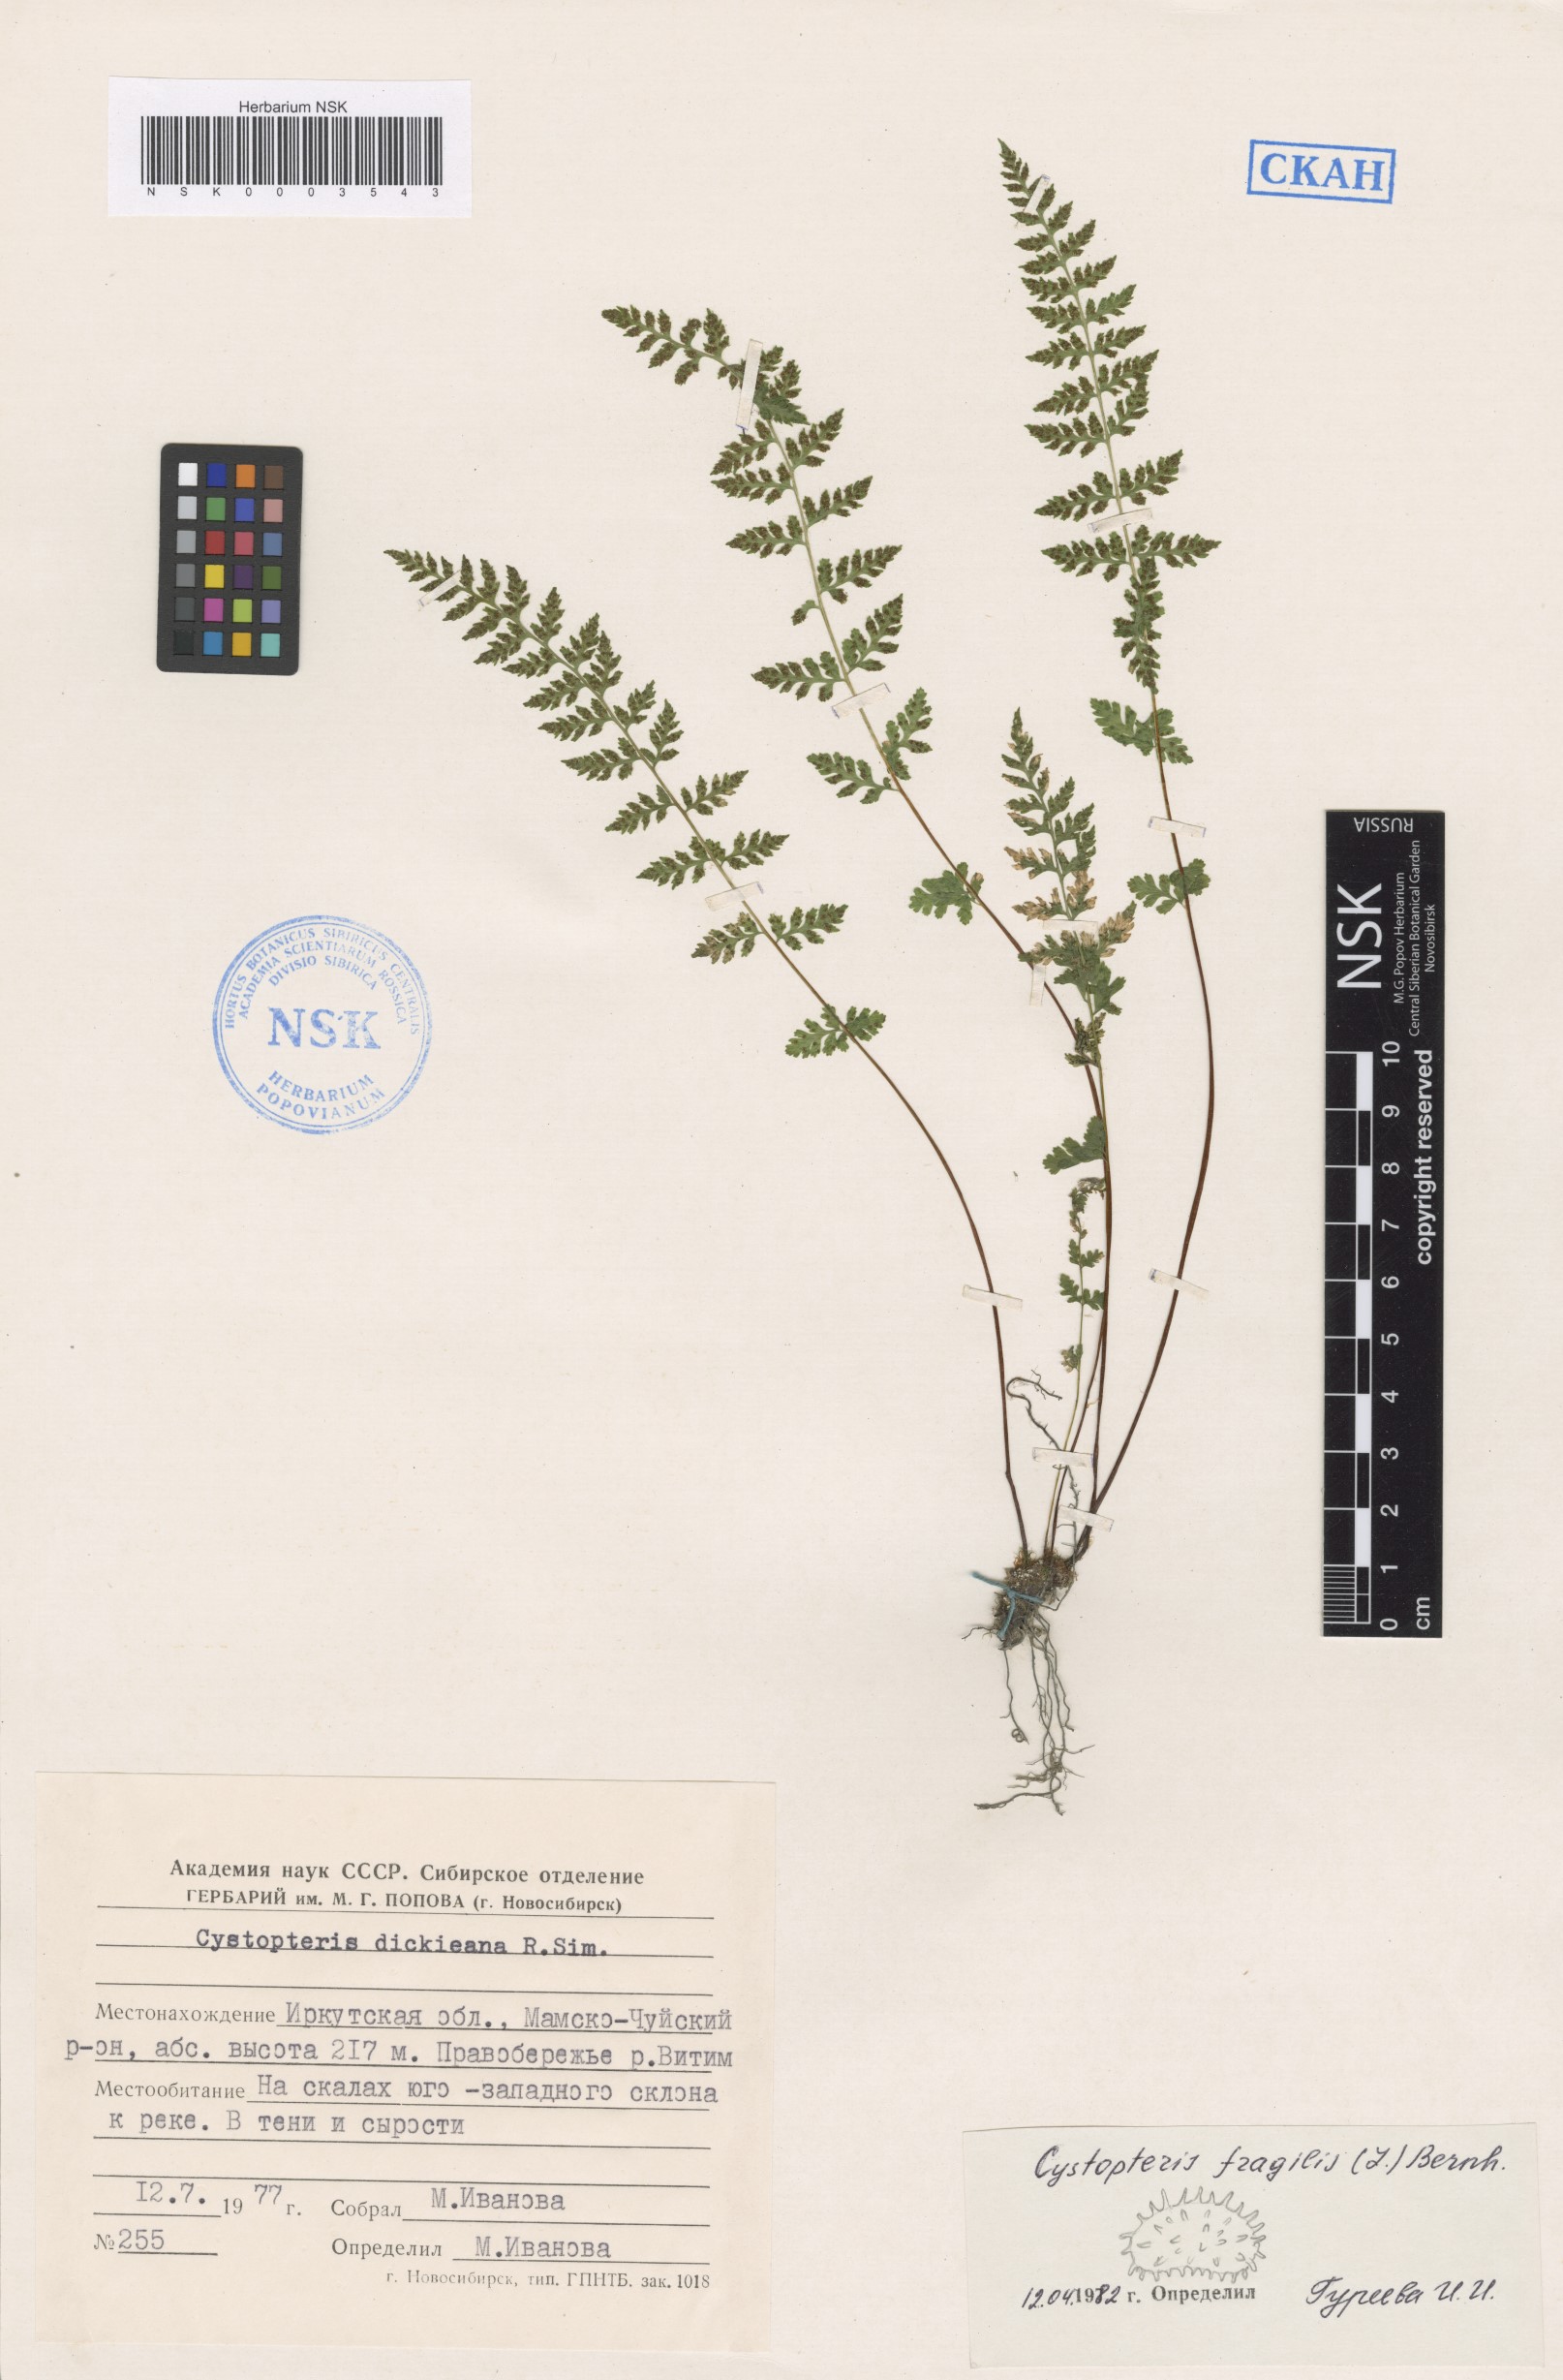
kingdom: Plantae
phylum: Tracheophyta
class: Polypodiopsida
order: Polypodiales
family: Cystopteridaceae
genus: Cystopteris
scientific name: Cystopteris fragilis
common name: Brittle bladder fern
